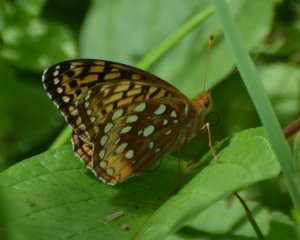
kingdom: Animalia
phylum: Arthropoda
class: Insecta
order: Lepidoptera
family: Nymphalidae
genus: Speyeria
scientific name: Speyeria cybele
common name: Great Spangled Fritillary
